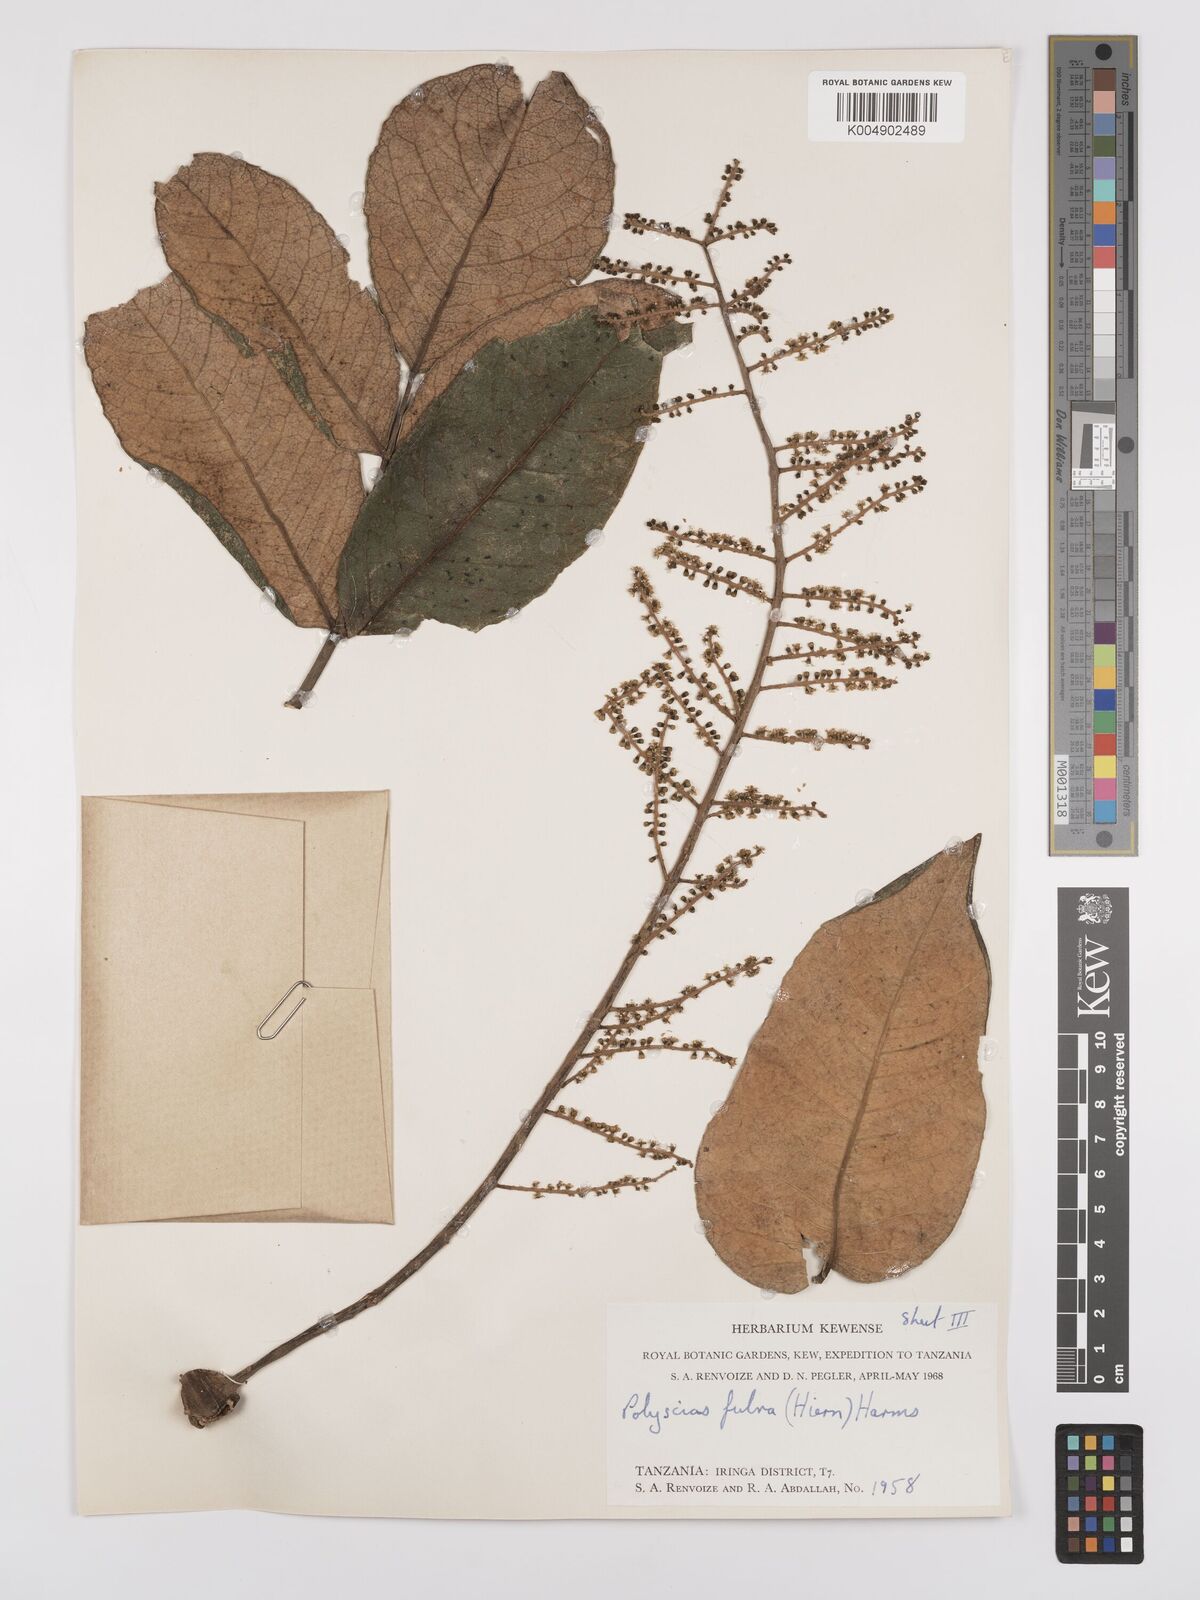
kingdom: Plantae
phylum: Tracheophyta
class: Magnoliopsida
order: Apiales
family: Araliaceae
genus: Polyscias
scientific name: Polyscias fulva
